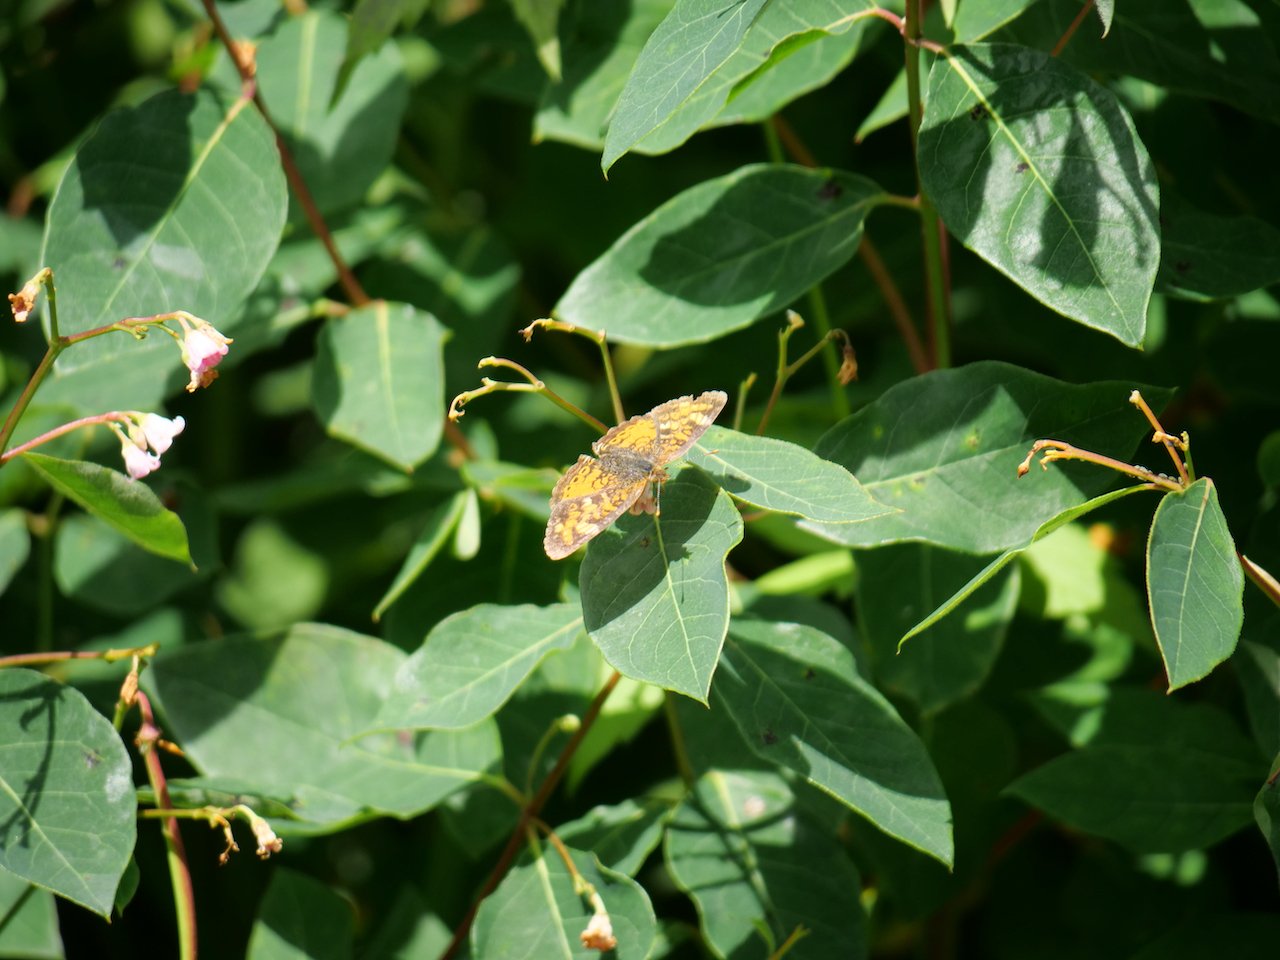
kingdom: Animalia
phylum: Arthropoda
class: Insecta
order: Lepidoptera
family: Nymphalidae
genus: Phyciodes
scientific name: Phyciodes tharos
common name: Northern Crescent
